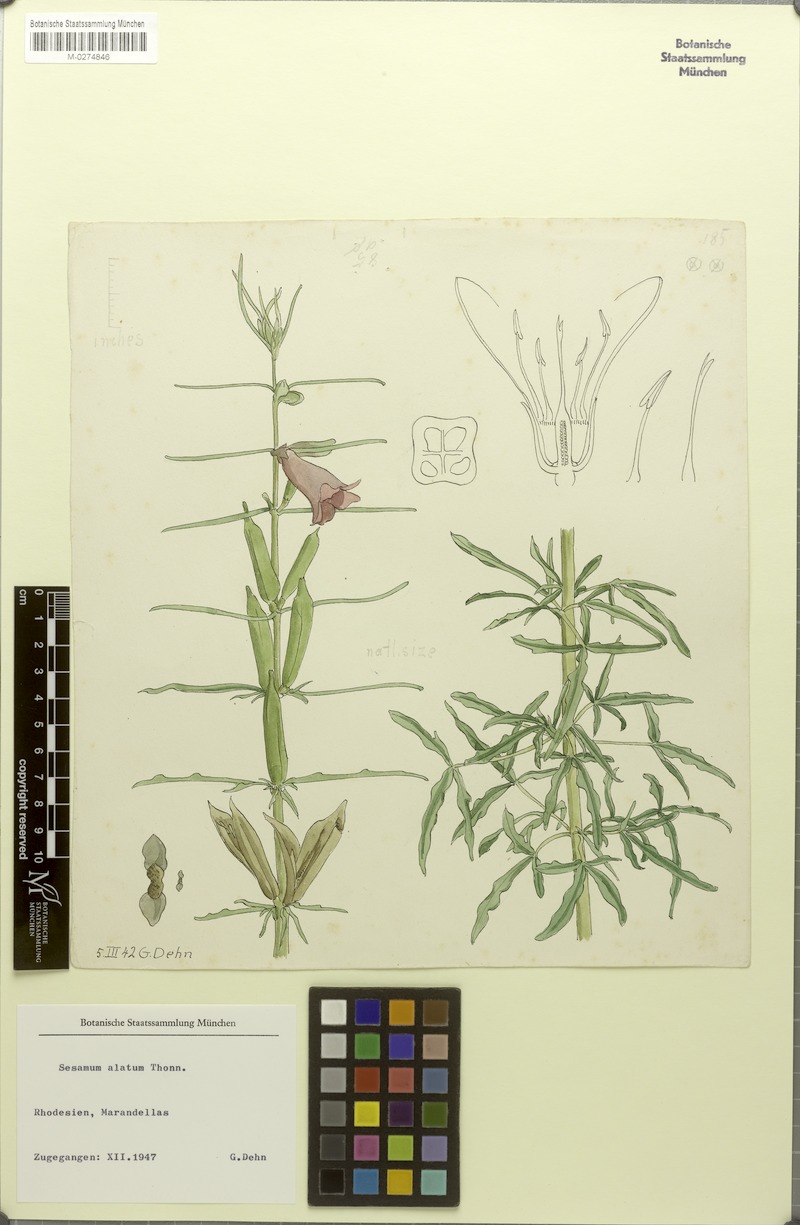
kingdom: Plantae
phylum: Tracheophyta
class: Magnoliopsida
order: Lamiales
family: Pedaliaceae
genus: Sesamum
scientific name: Sesamum alatum
